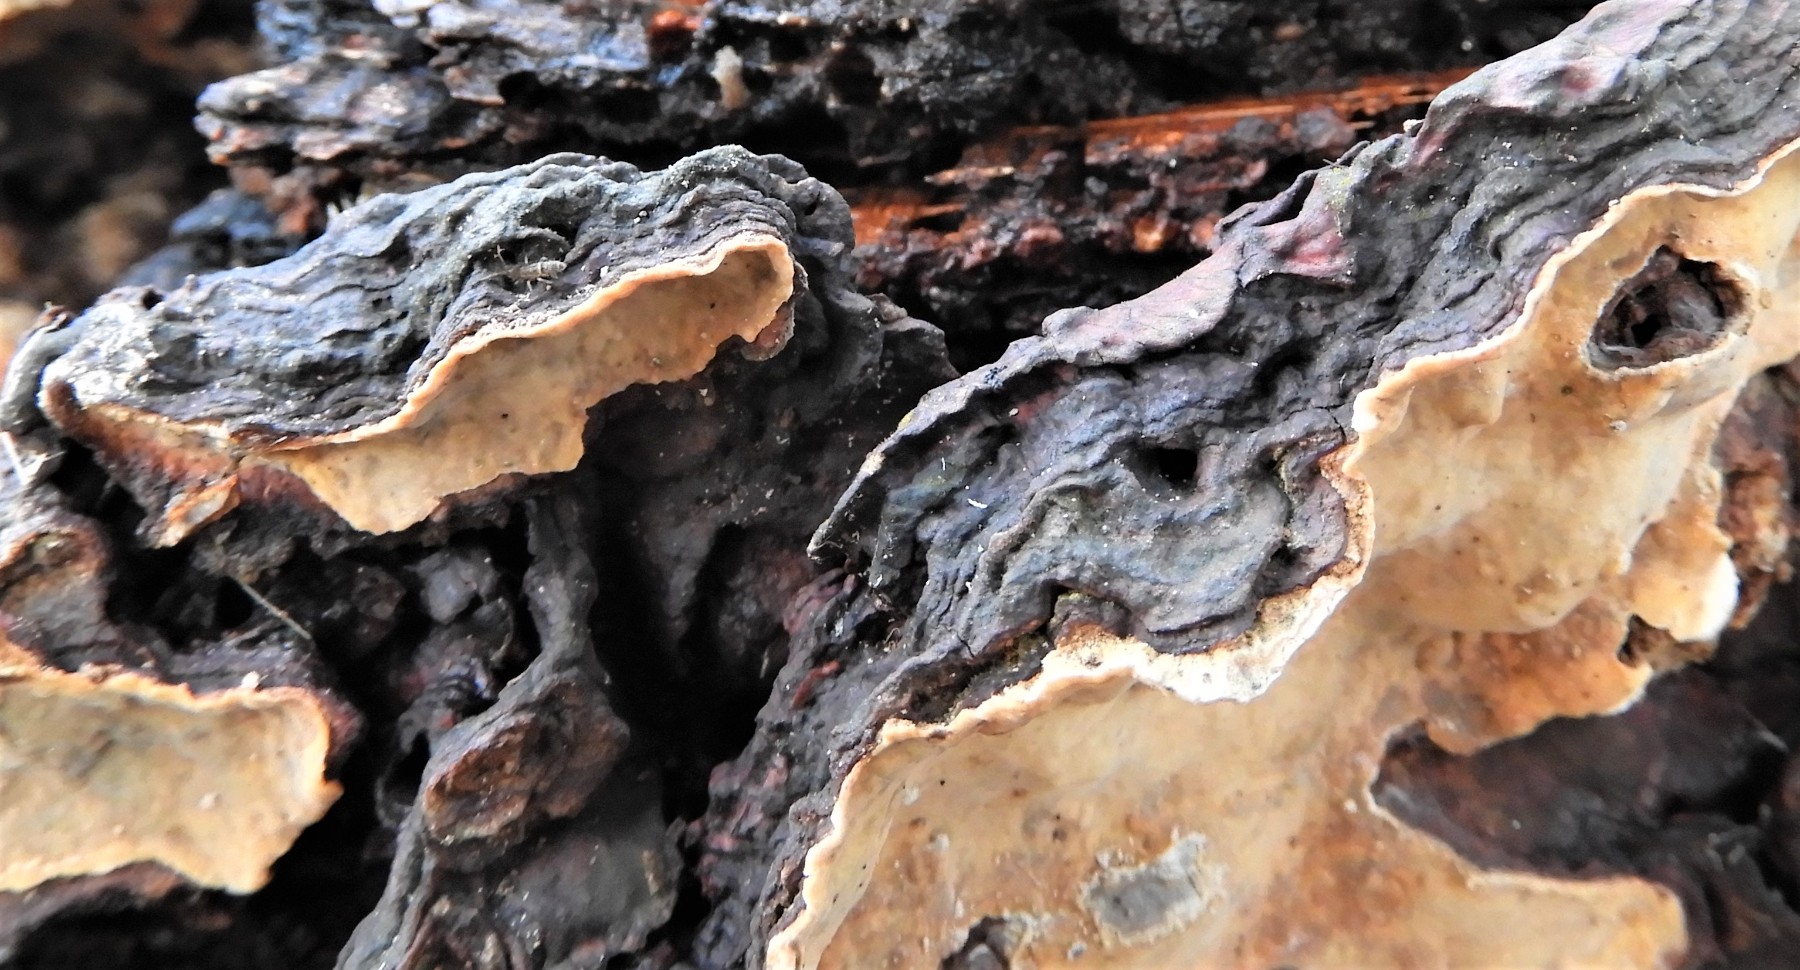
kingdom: Fungi
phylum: Basidiomycota
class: Agaricomycetes
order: Russulales
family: Stereaceae
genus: Stereum
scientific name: Stereum rugosum
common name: rynket lædersvamp
